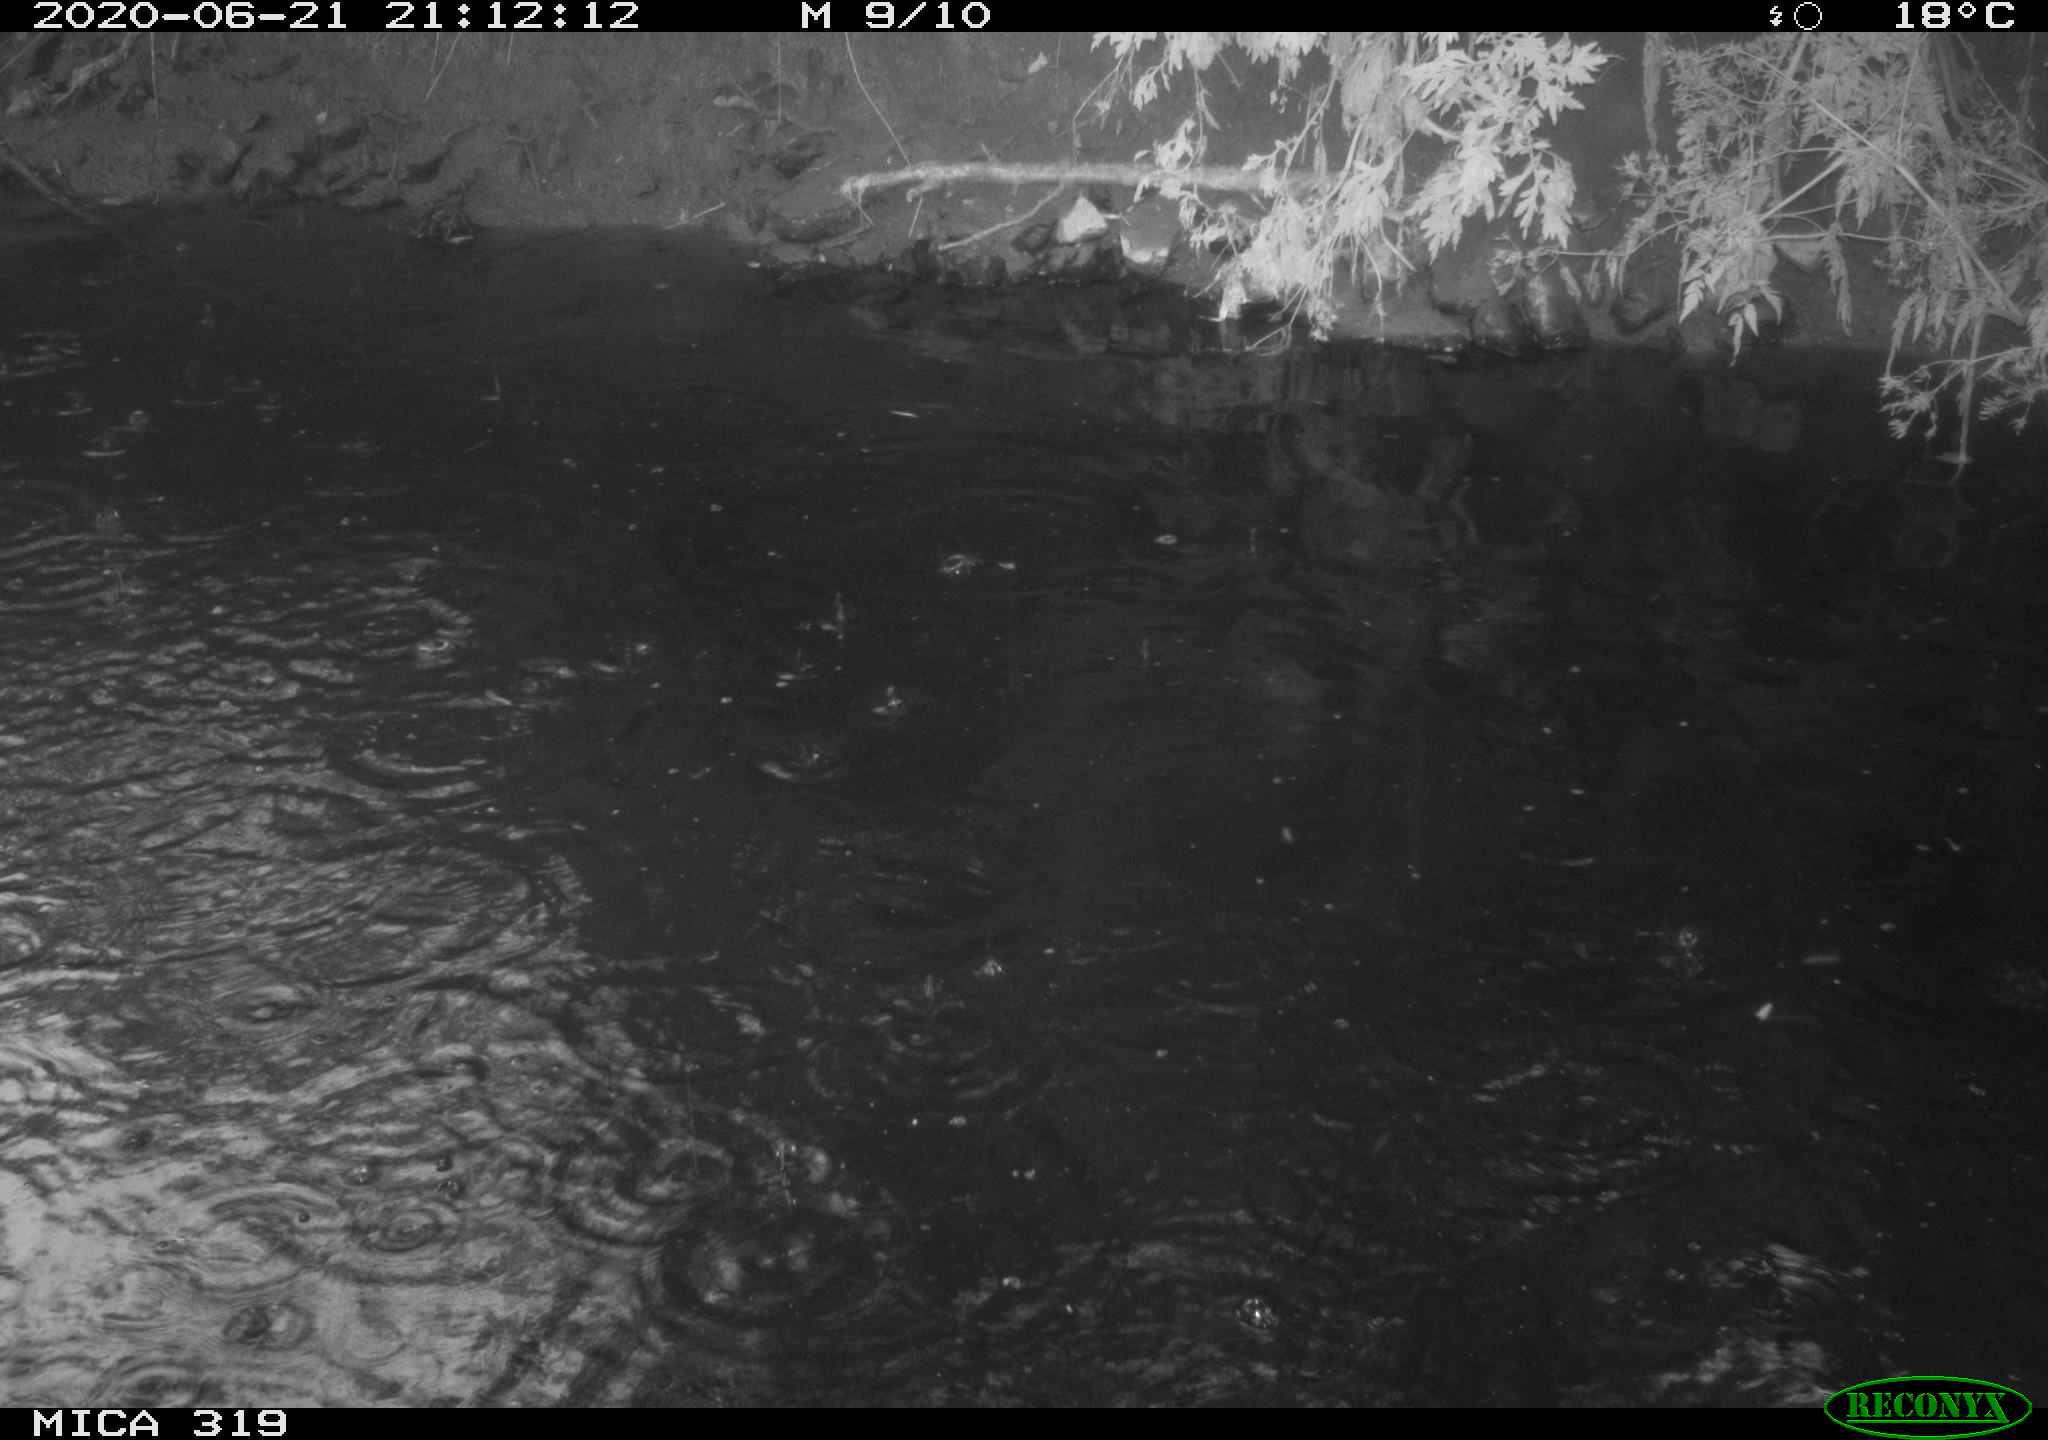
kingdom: Animalia
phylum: Chordata
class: Aves
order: Anseriformes
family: Anatidae
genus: Anas
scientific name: Anas platyrhynchos
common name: Mallard
